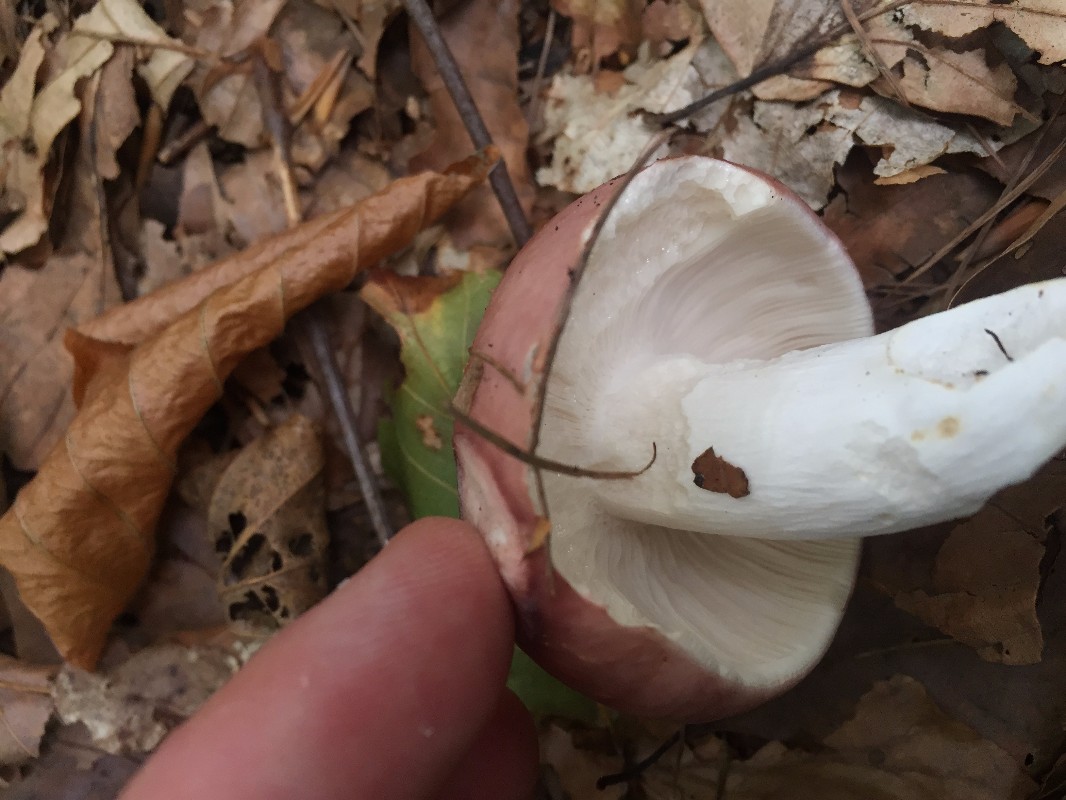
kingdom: Fungi
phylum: Basidiomycota
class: Agaricomycetes
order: Russulales
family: Russulaceae
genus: Russula
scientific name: Russula vesca
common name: spiselig skørhat
